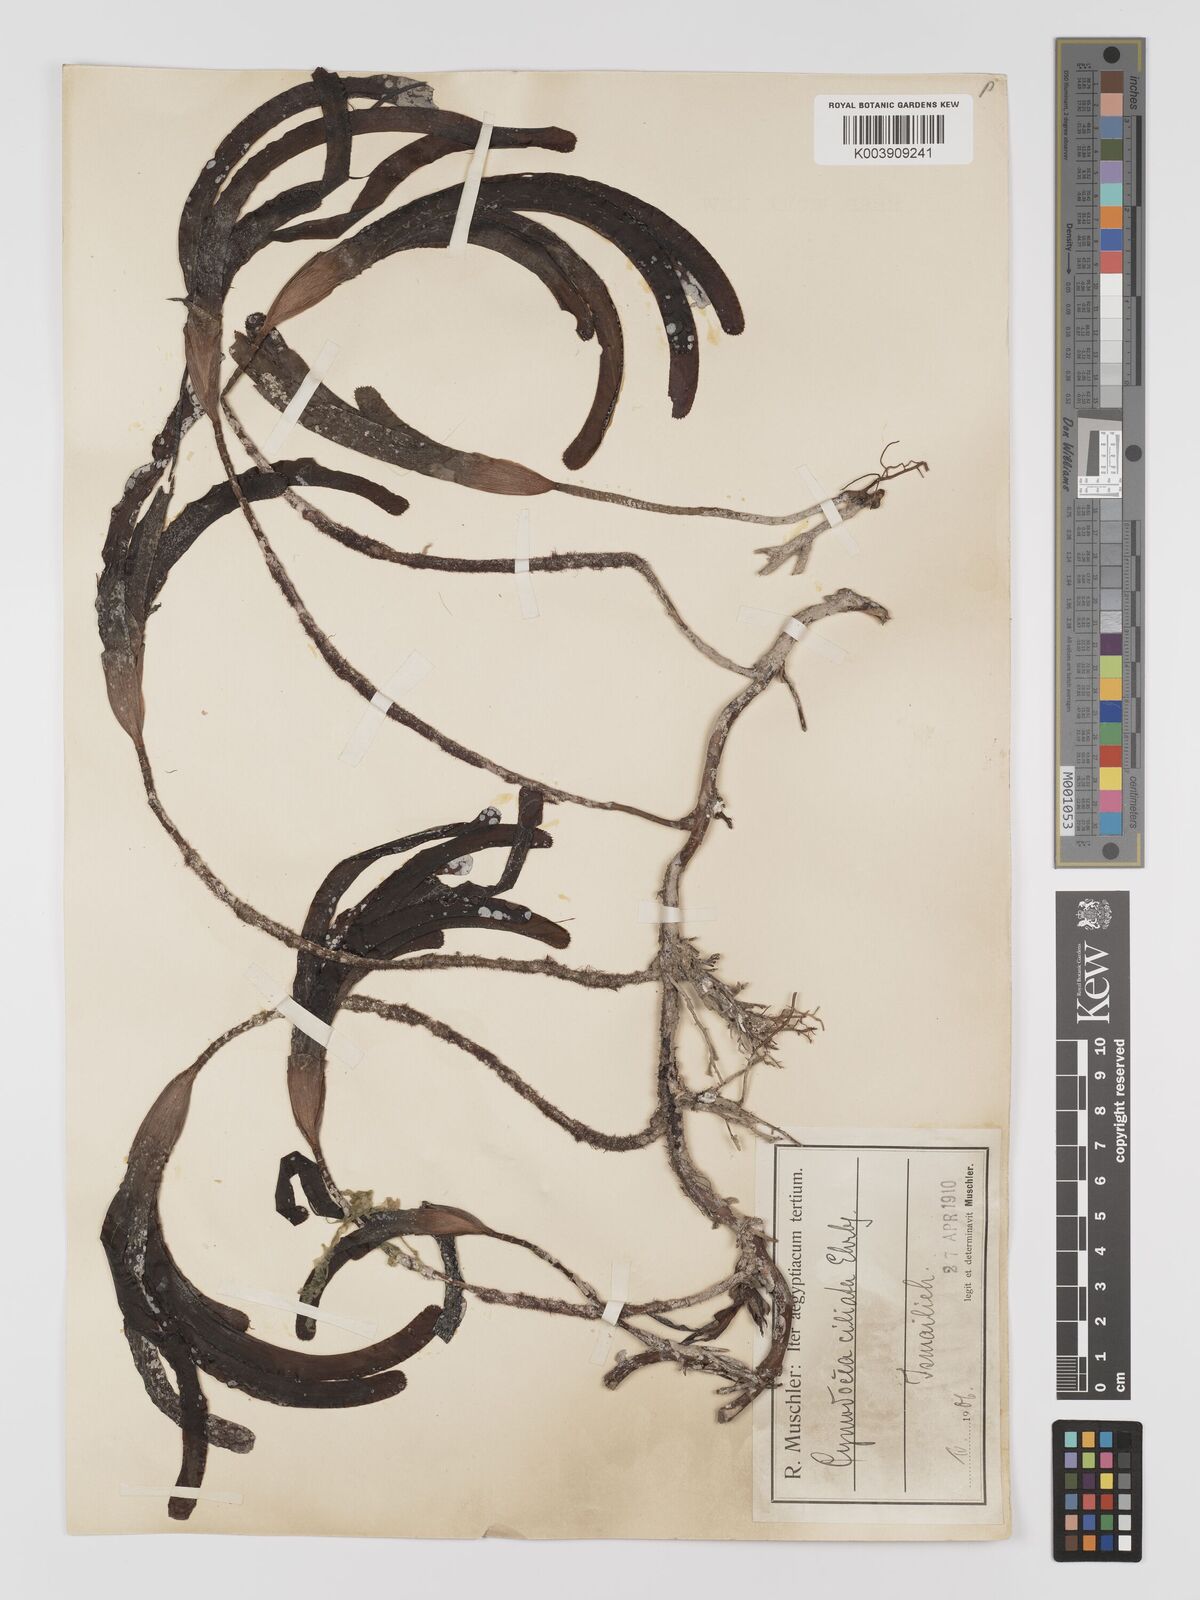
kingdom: Plantae
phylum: Tracheophyta
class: Liliopsida
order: Alismatales
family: Cymodoceaceae
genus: Thalassodendron
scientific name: Thalassodendron ciliatum
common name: Species code: tc
